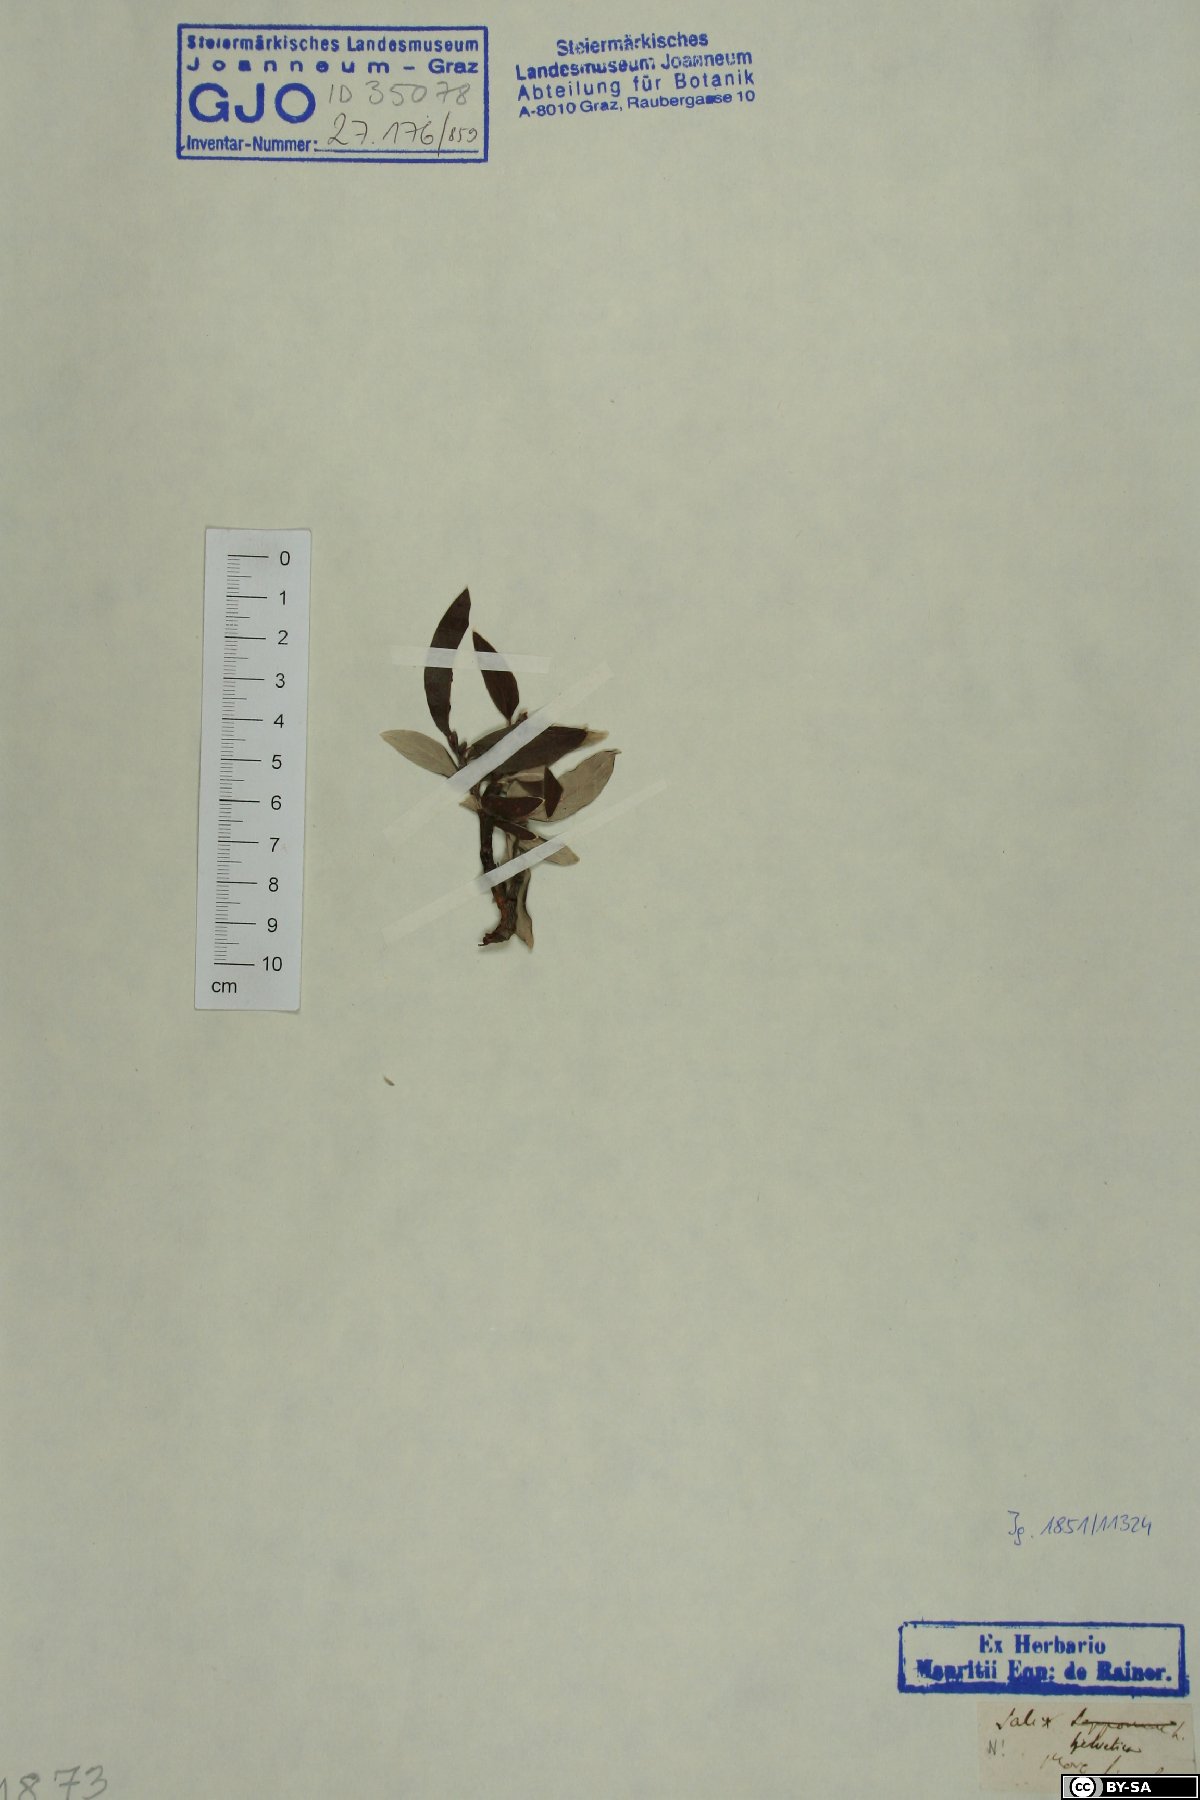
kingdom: Plantae
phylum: Tracheophyta
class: Magnoliopsida
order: Malpighiales
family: Salicaceae
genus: Salix
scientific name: Salix helvetica
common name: Swiss willow
